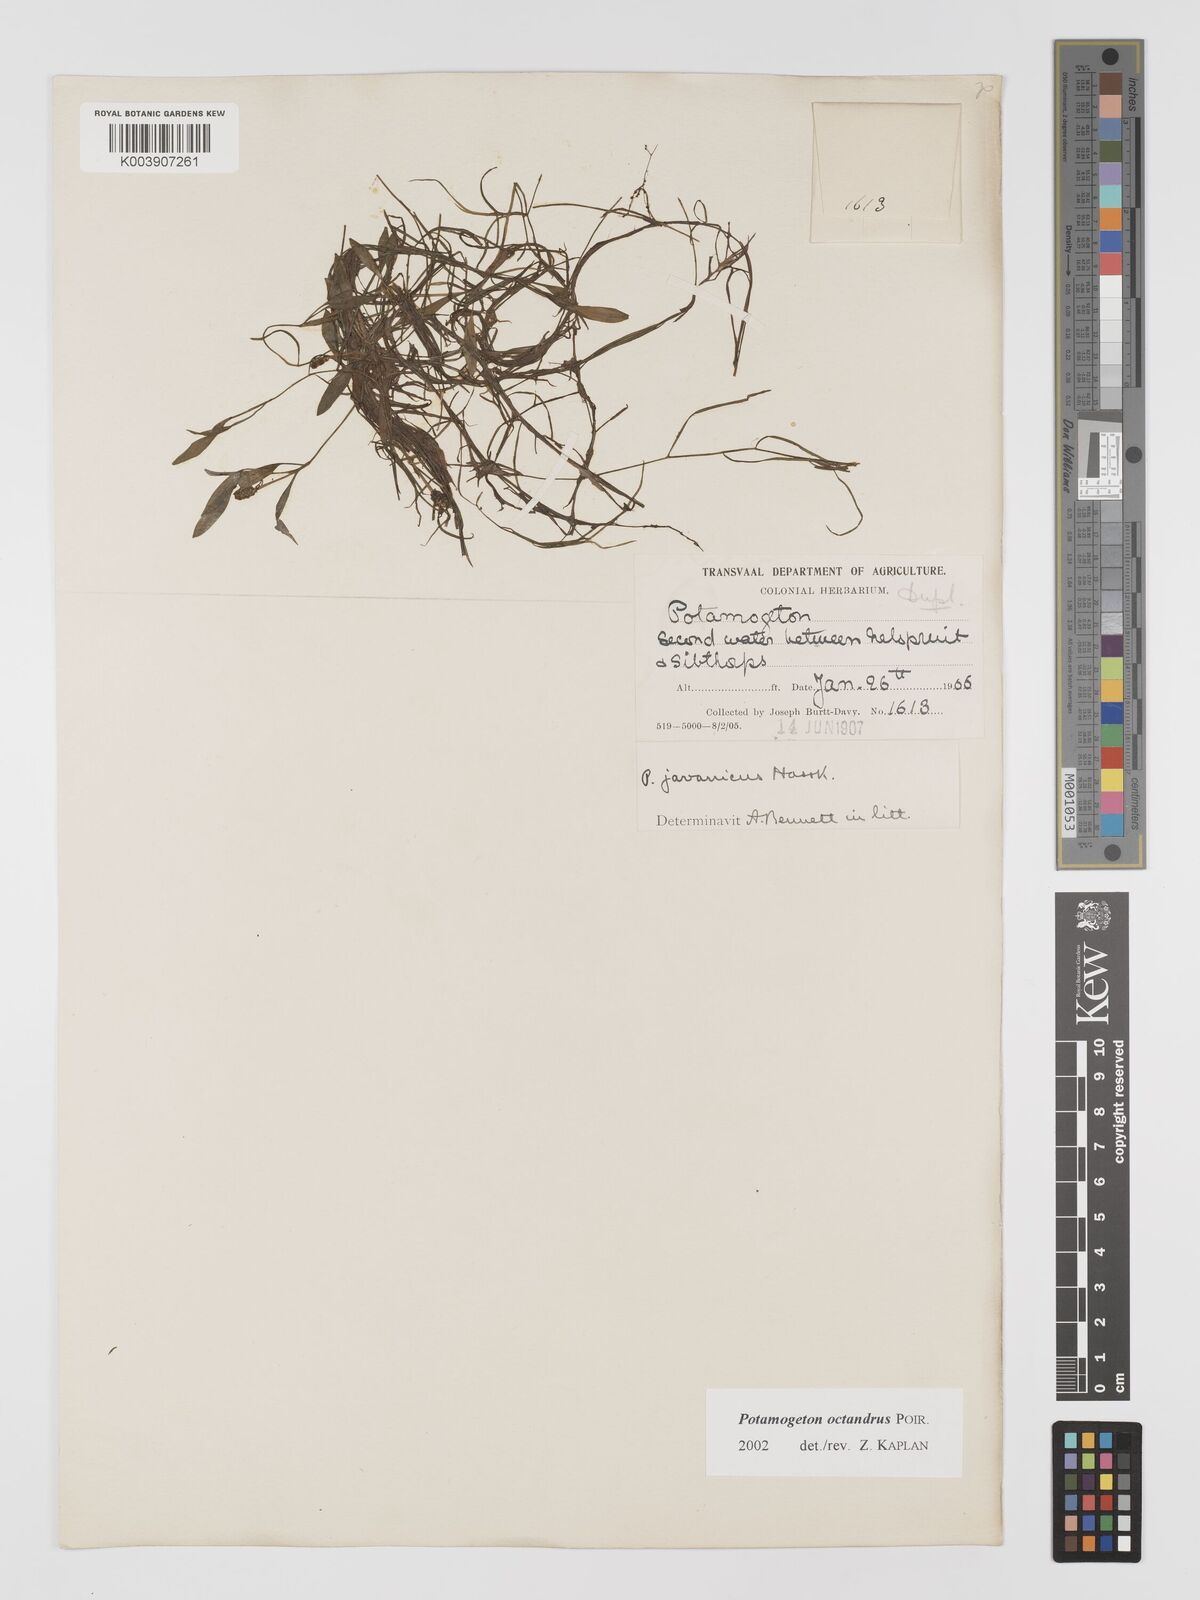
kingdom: Plantae
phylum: Tracheophyta
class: Liliopsida
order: Alismatales
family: Potamogetonaceae
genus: Potamogeton
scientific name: Potamogeton tenuicaulis
